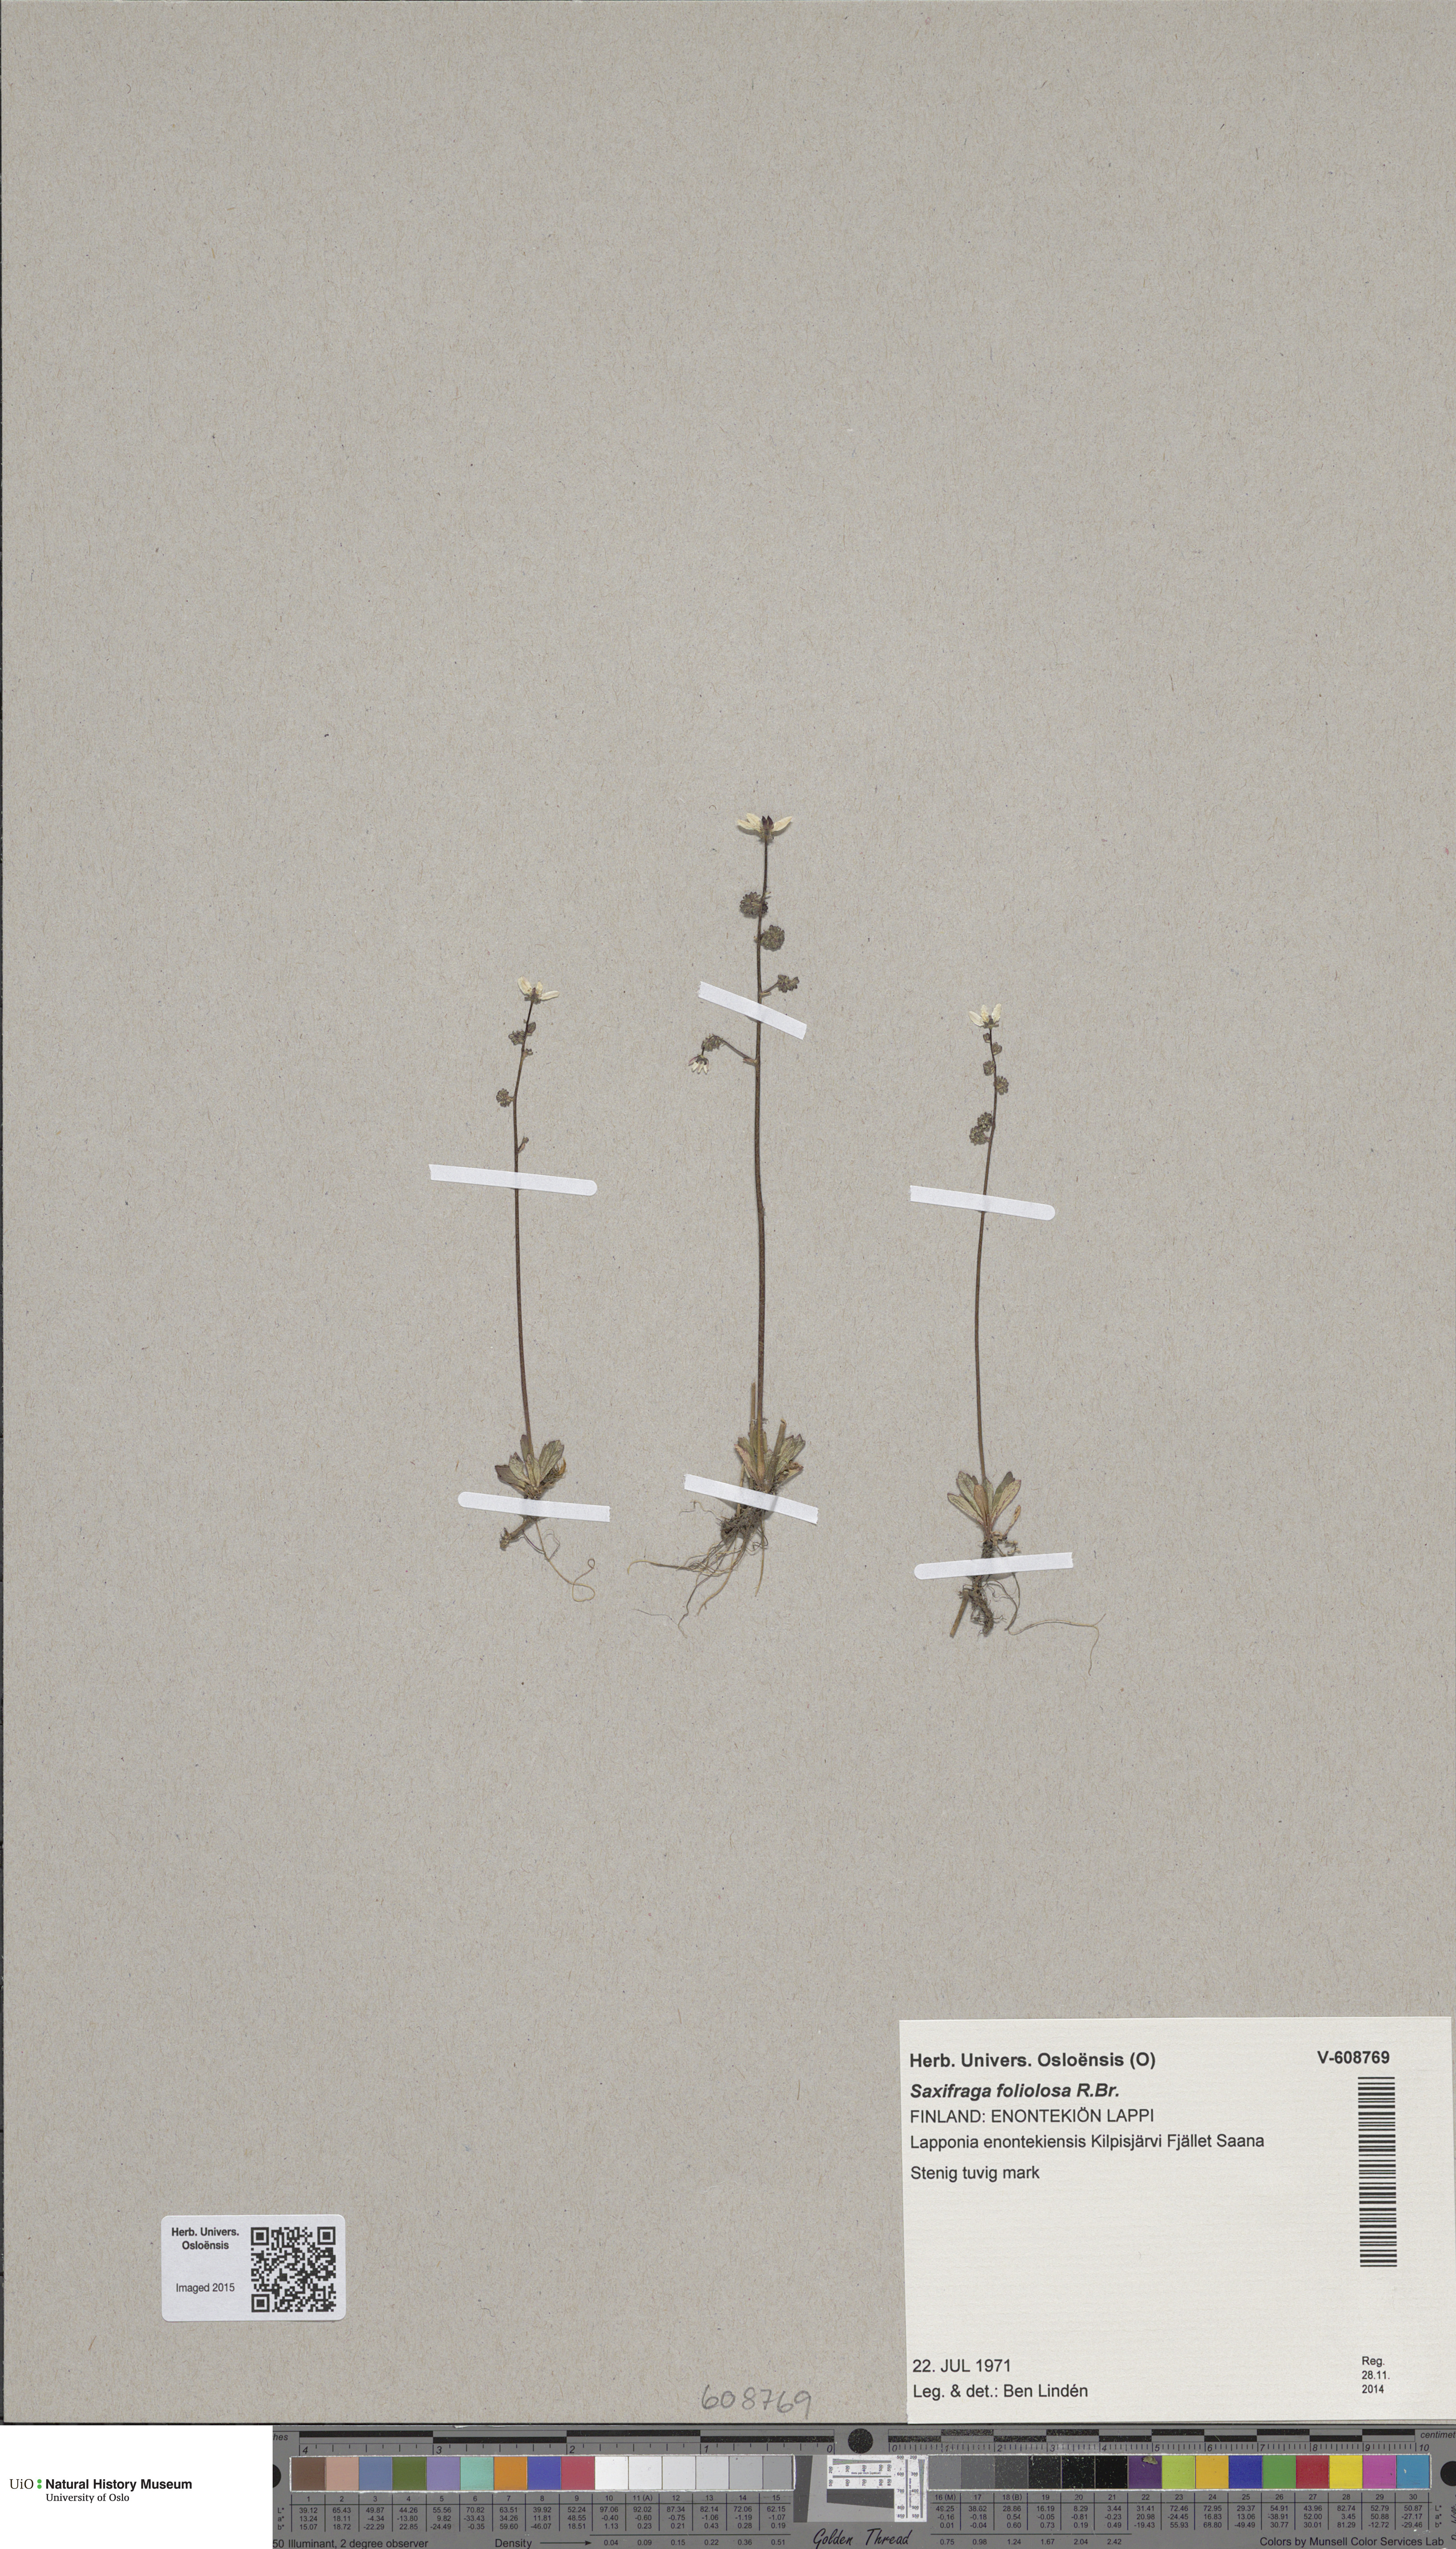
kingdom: Plantae
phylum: Tracheophyta
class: Magnoliopsida
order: Saxifragales
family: Saxifragaceae
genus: Micranthes
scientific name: Micranthes foliolosa
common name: Leafystem saxifrage
